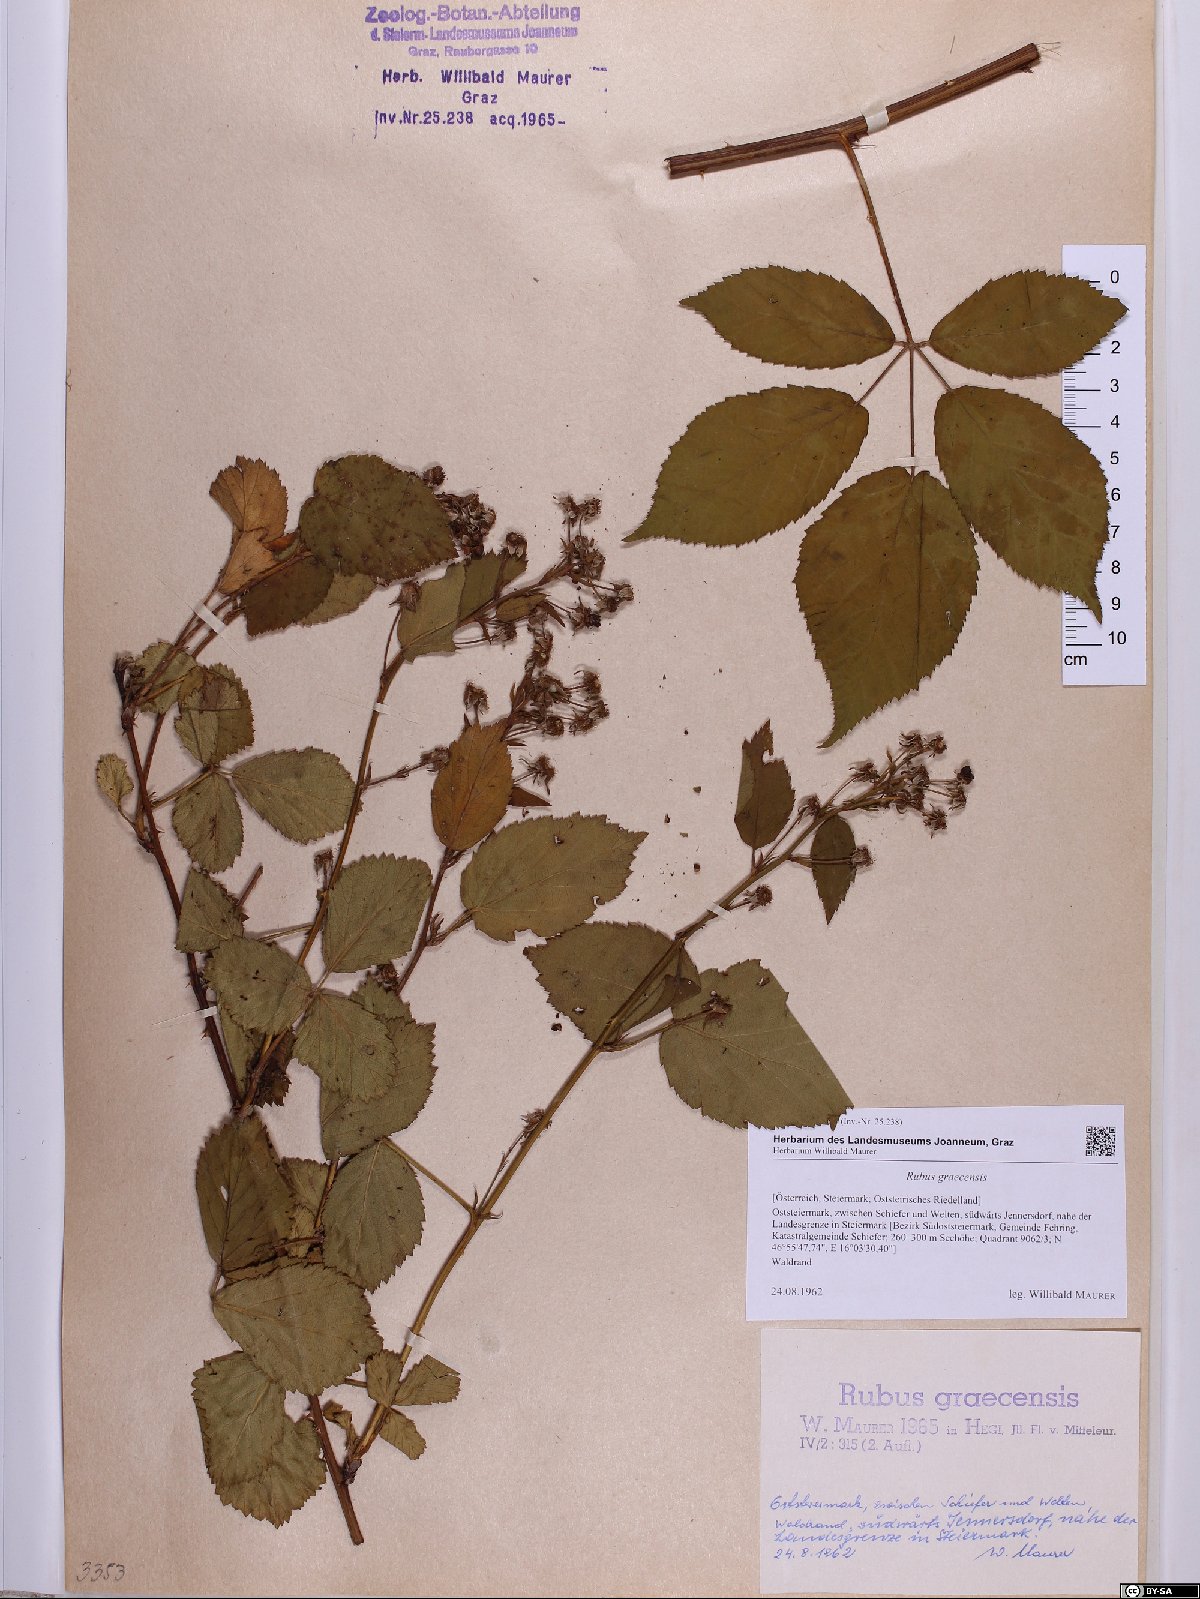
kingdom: Plantae
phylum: Tracheophyta
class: Magnoliopsida
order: Rosales
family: Rosaceae
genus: Rubus
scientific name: Rubus graecensis
